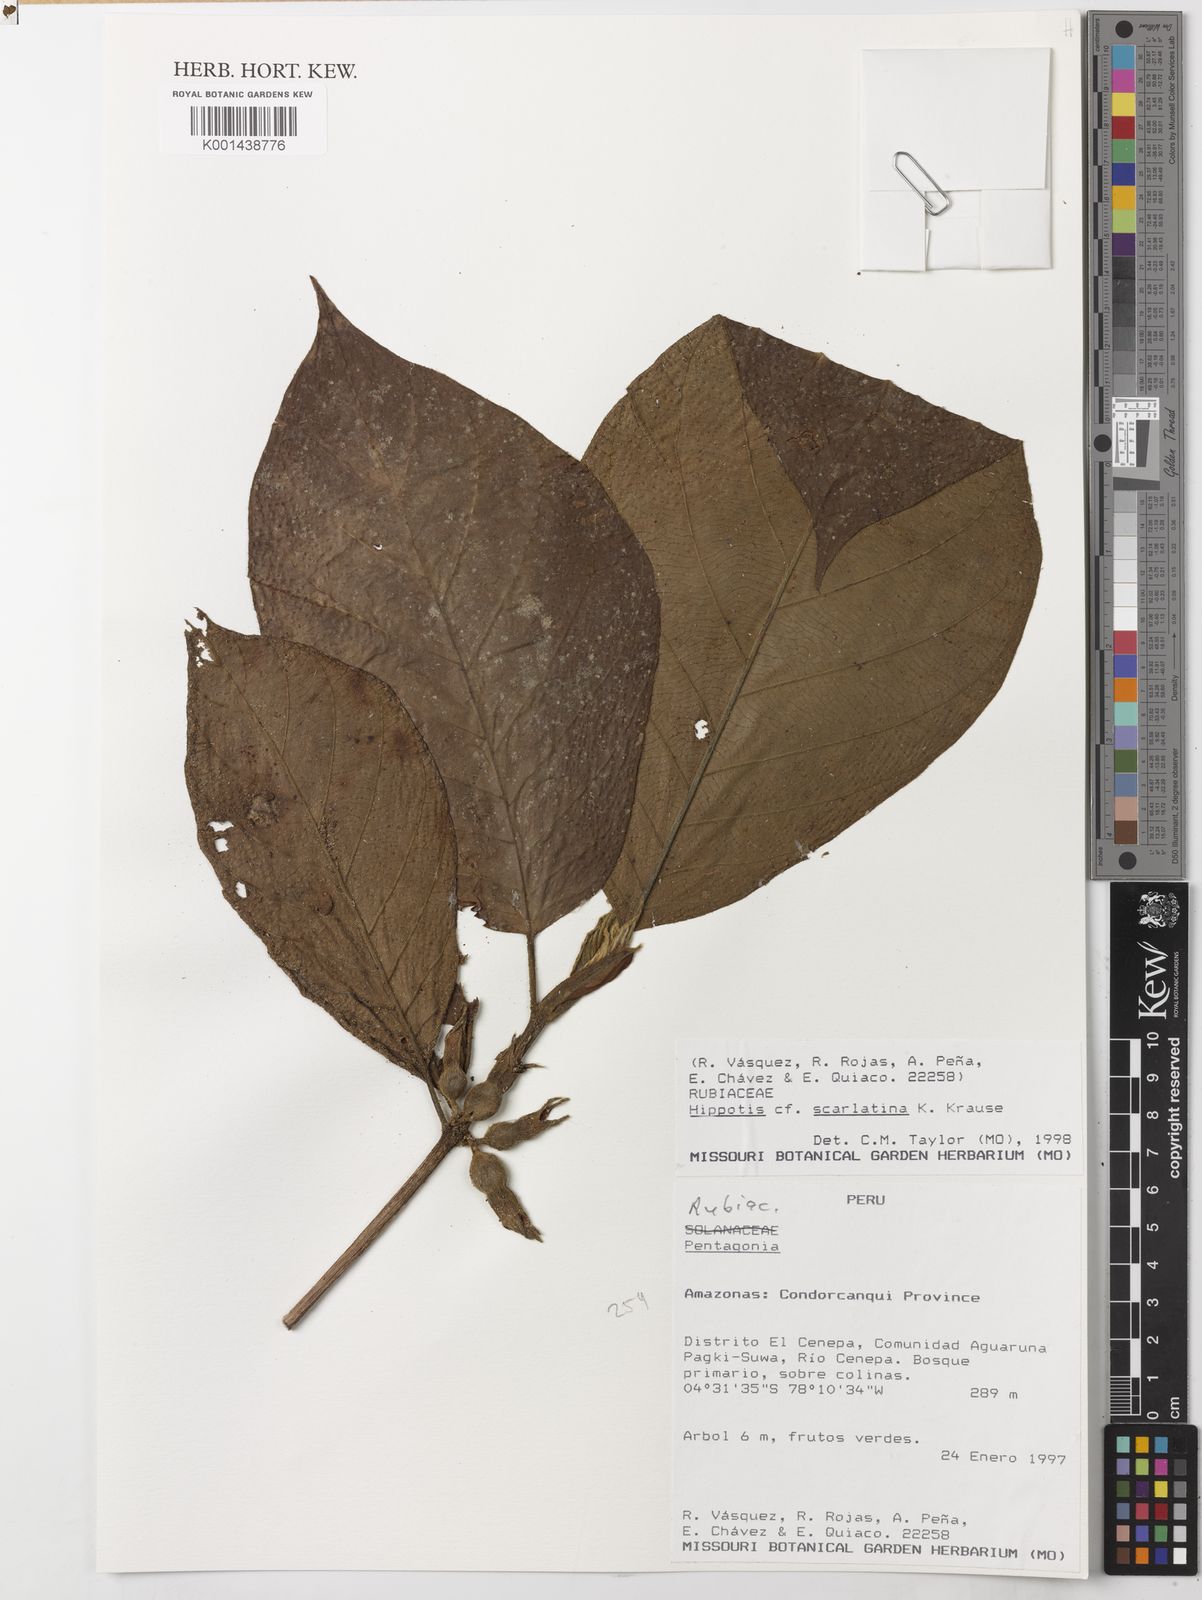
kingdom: Plantae
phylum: Tracheophyta
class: Magnoliopsida
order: Gentianales
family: Rubiaceae
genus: Hippotis
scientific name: Hippotis brevipes
